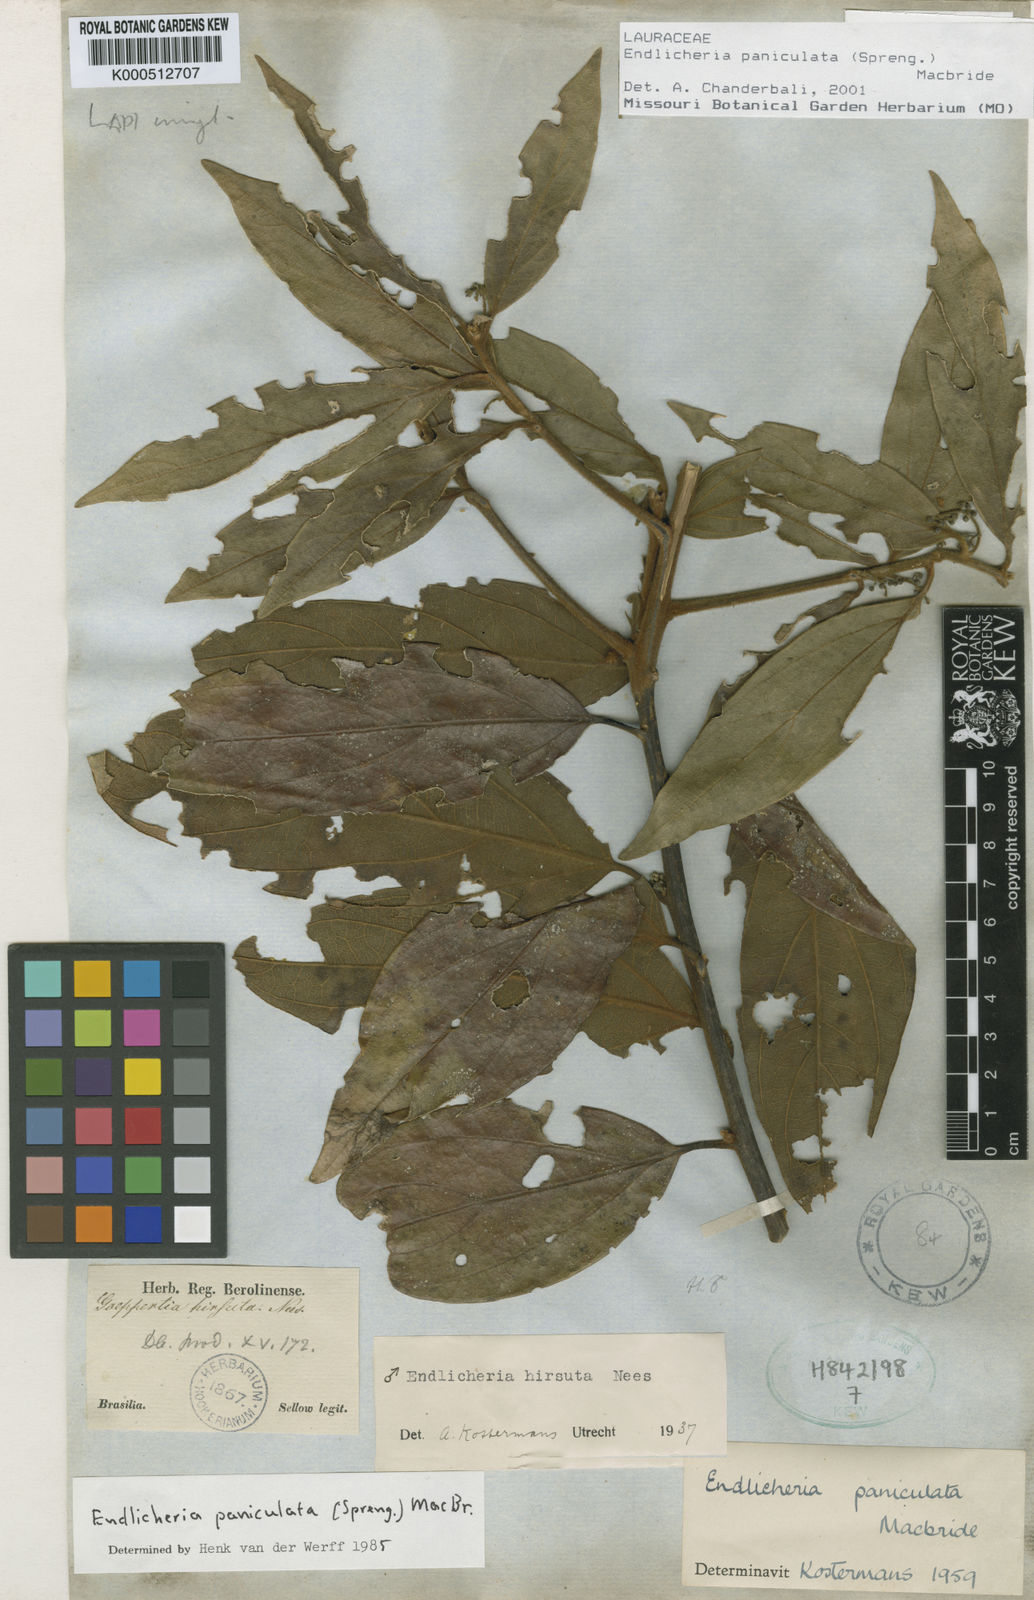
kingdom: Plantae
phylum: Tracheophyta
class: Magnoliopsida
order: Laurales
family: Lauraceae
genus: Endlicheria
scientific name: Endlicheria paniculata
